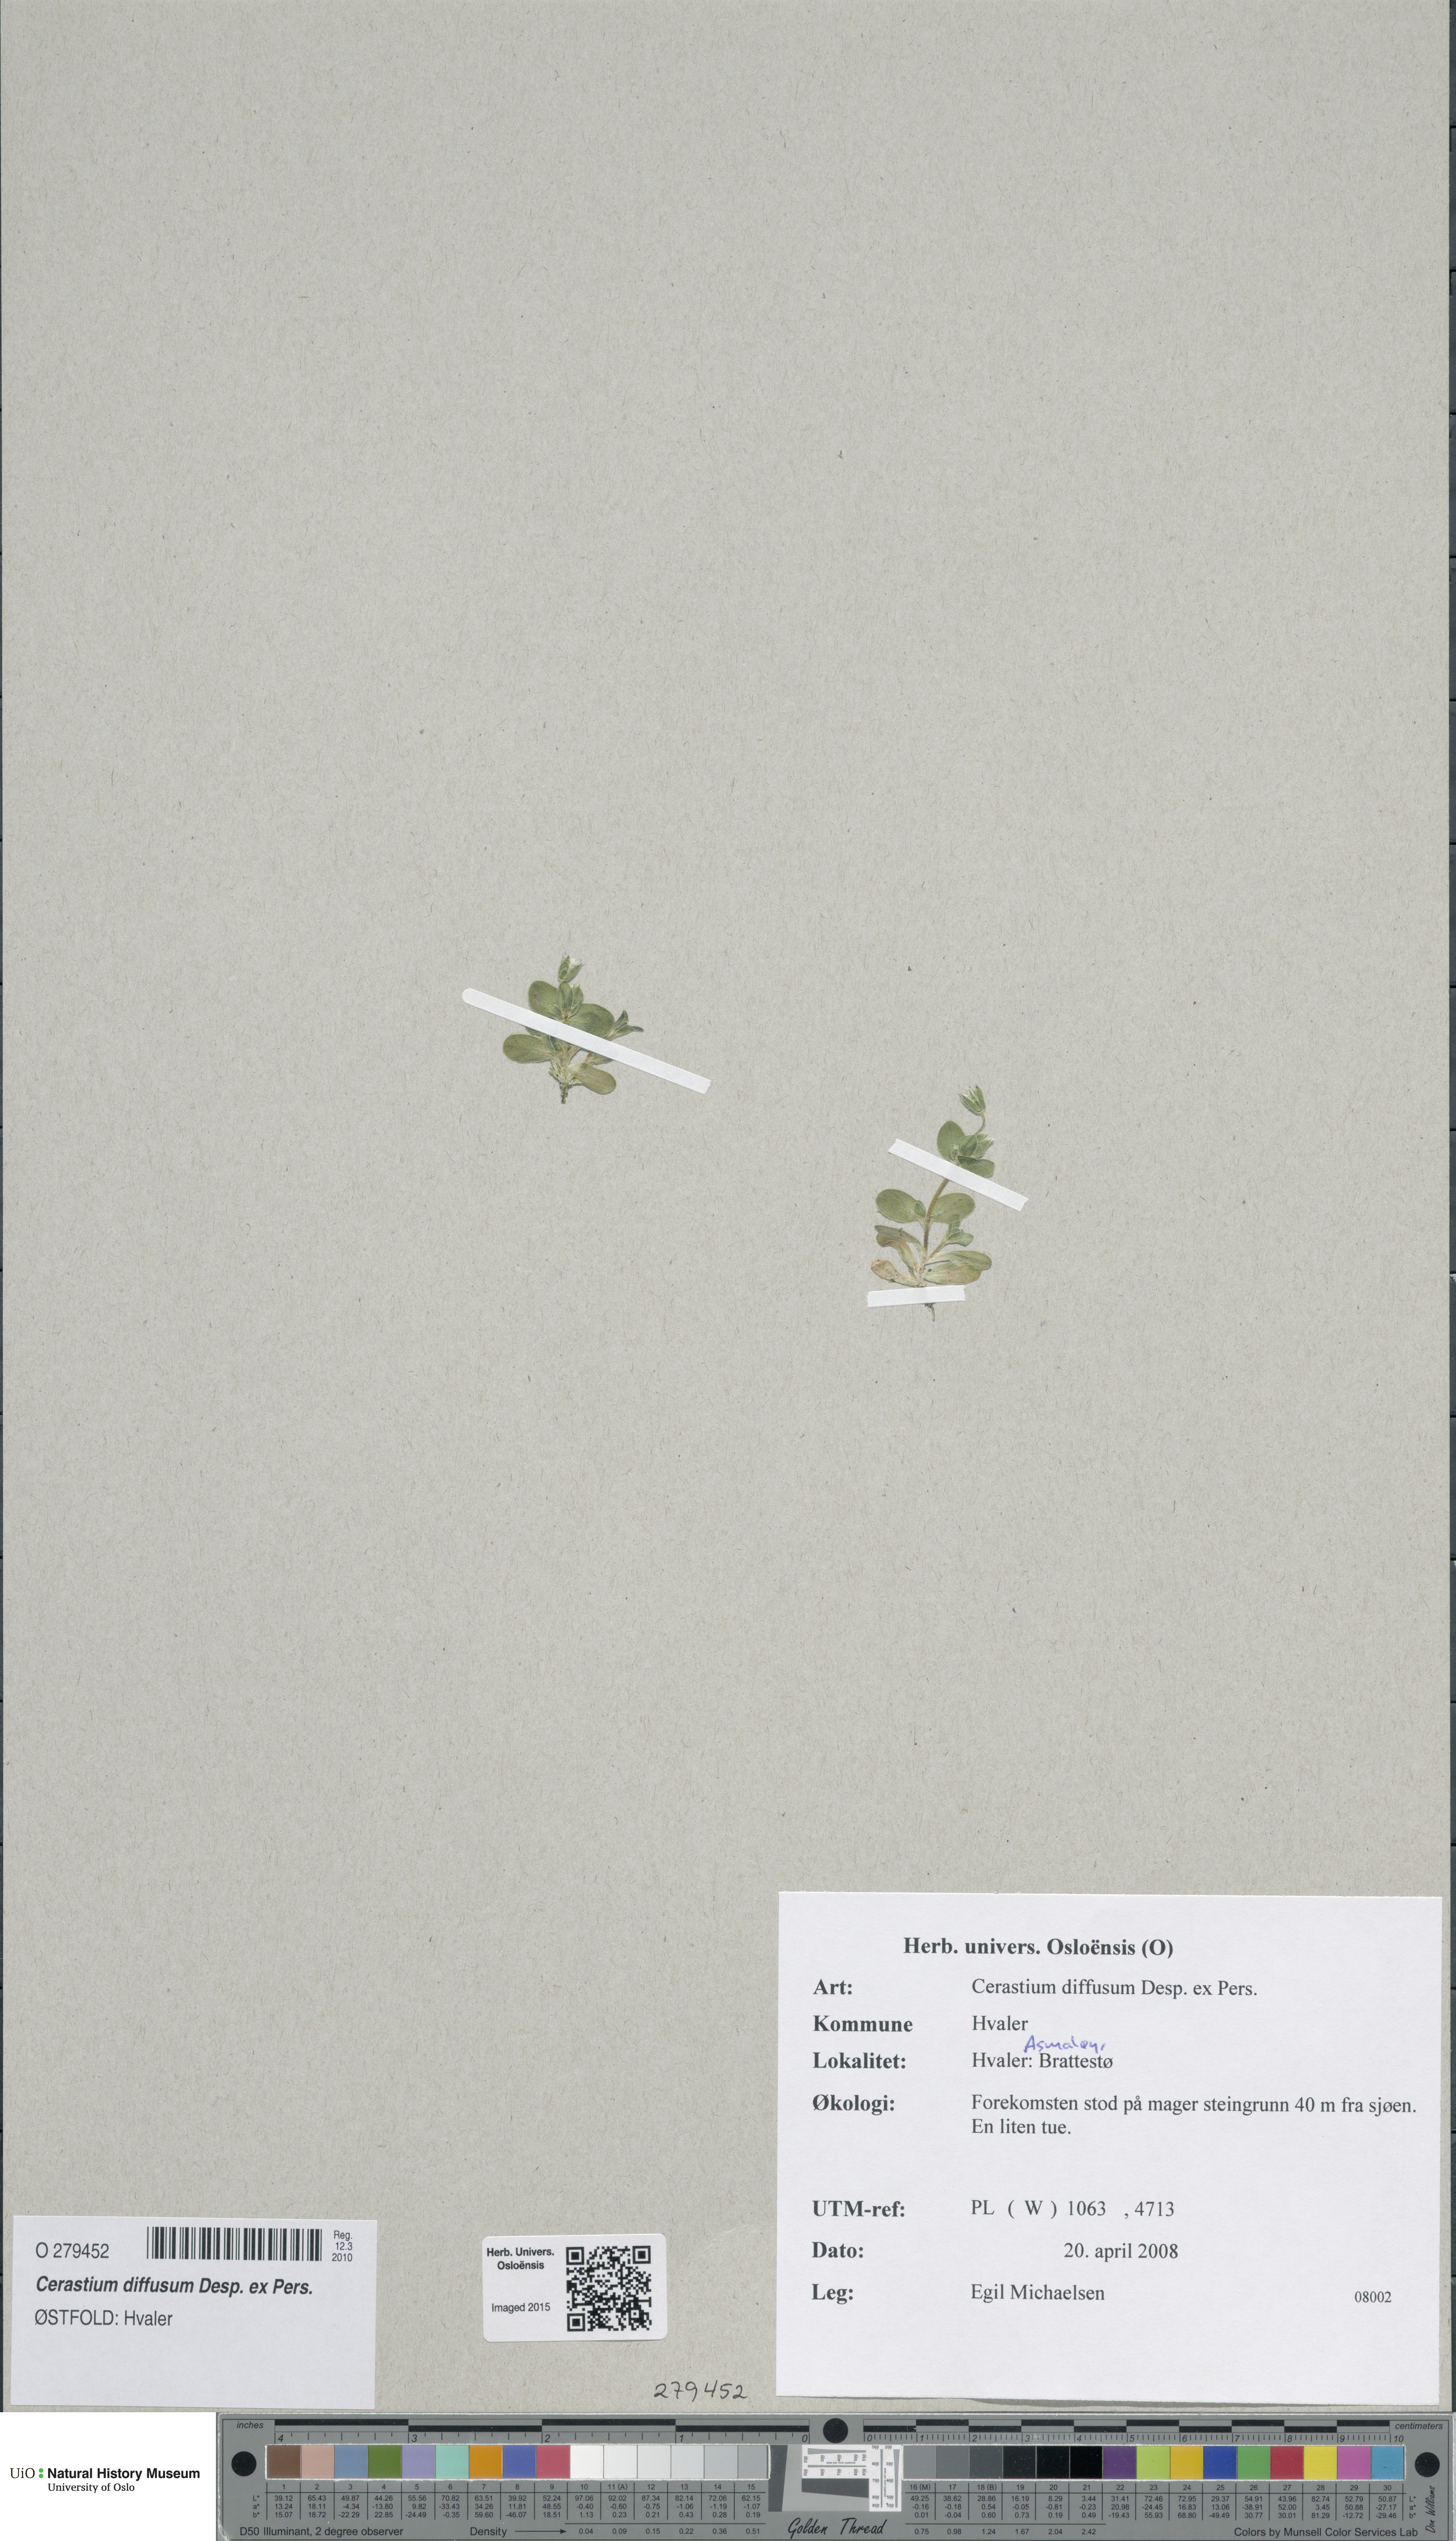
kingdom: Plantae
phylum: Tracheophyta
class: Magnoliopsida
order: Caryophyllales
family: Caryophyllaceae
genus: Cerastium
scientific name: Cerastium diffusum
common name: Fourstamen chickweed
